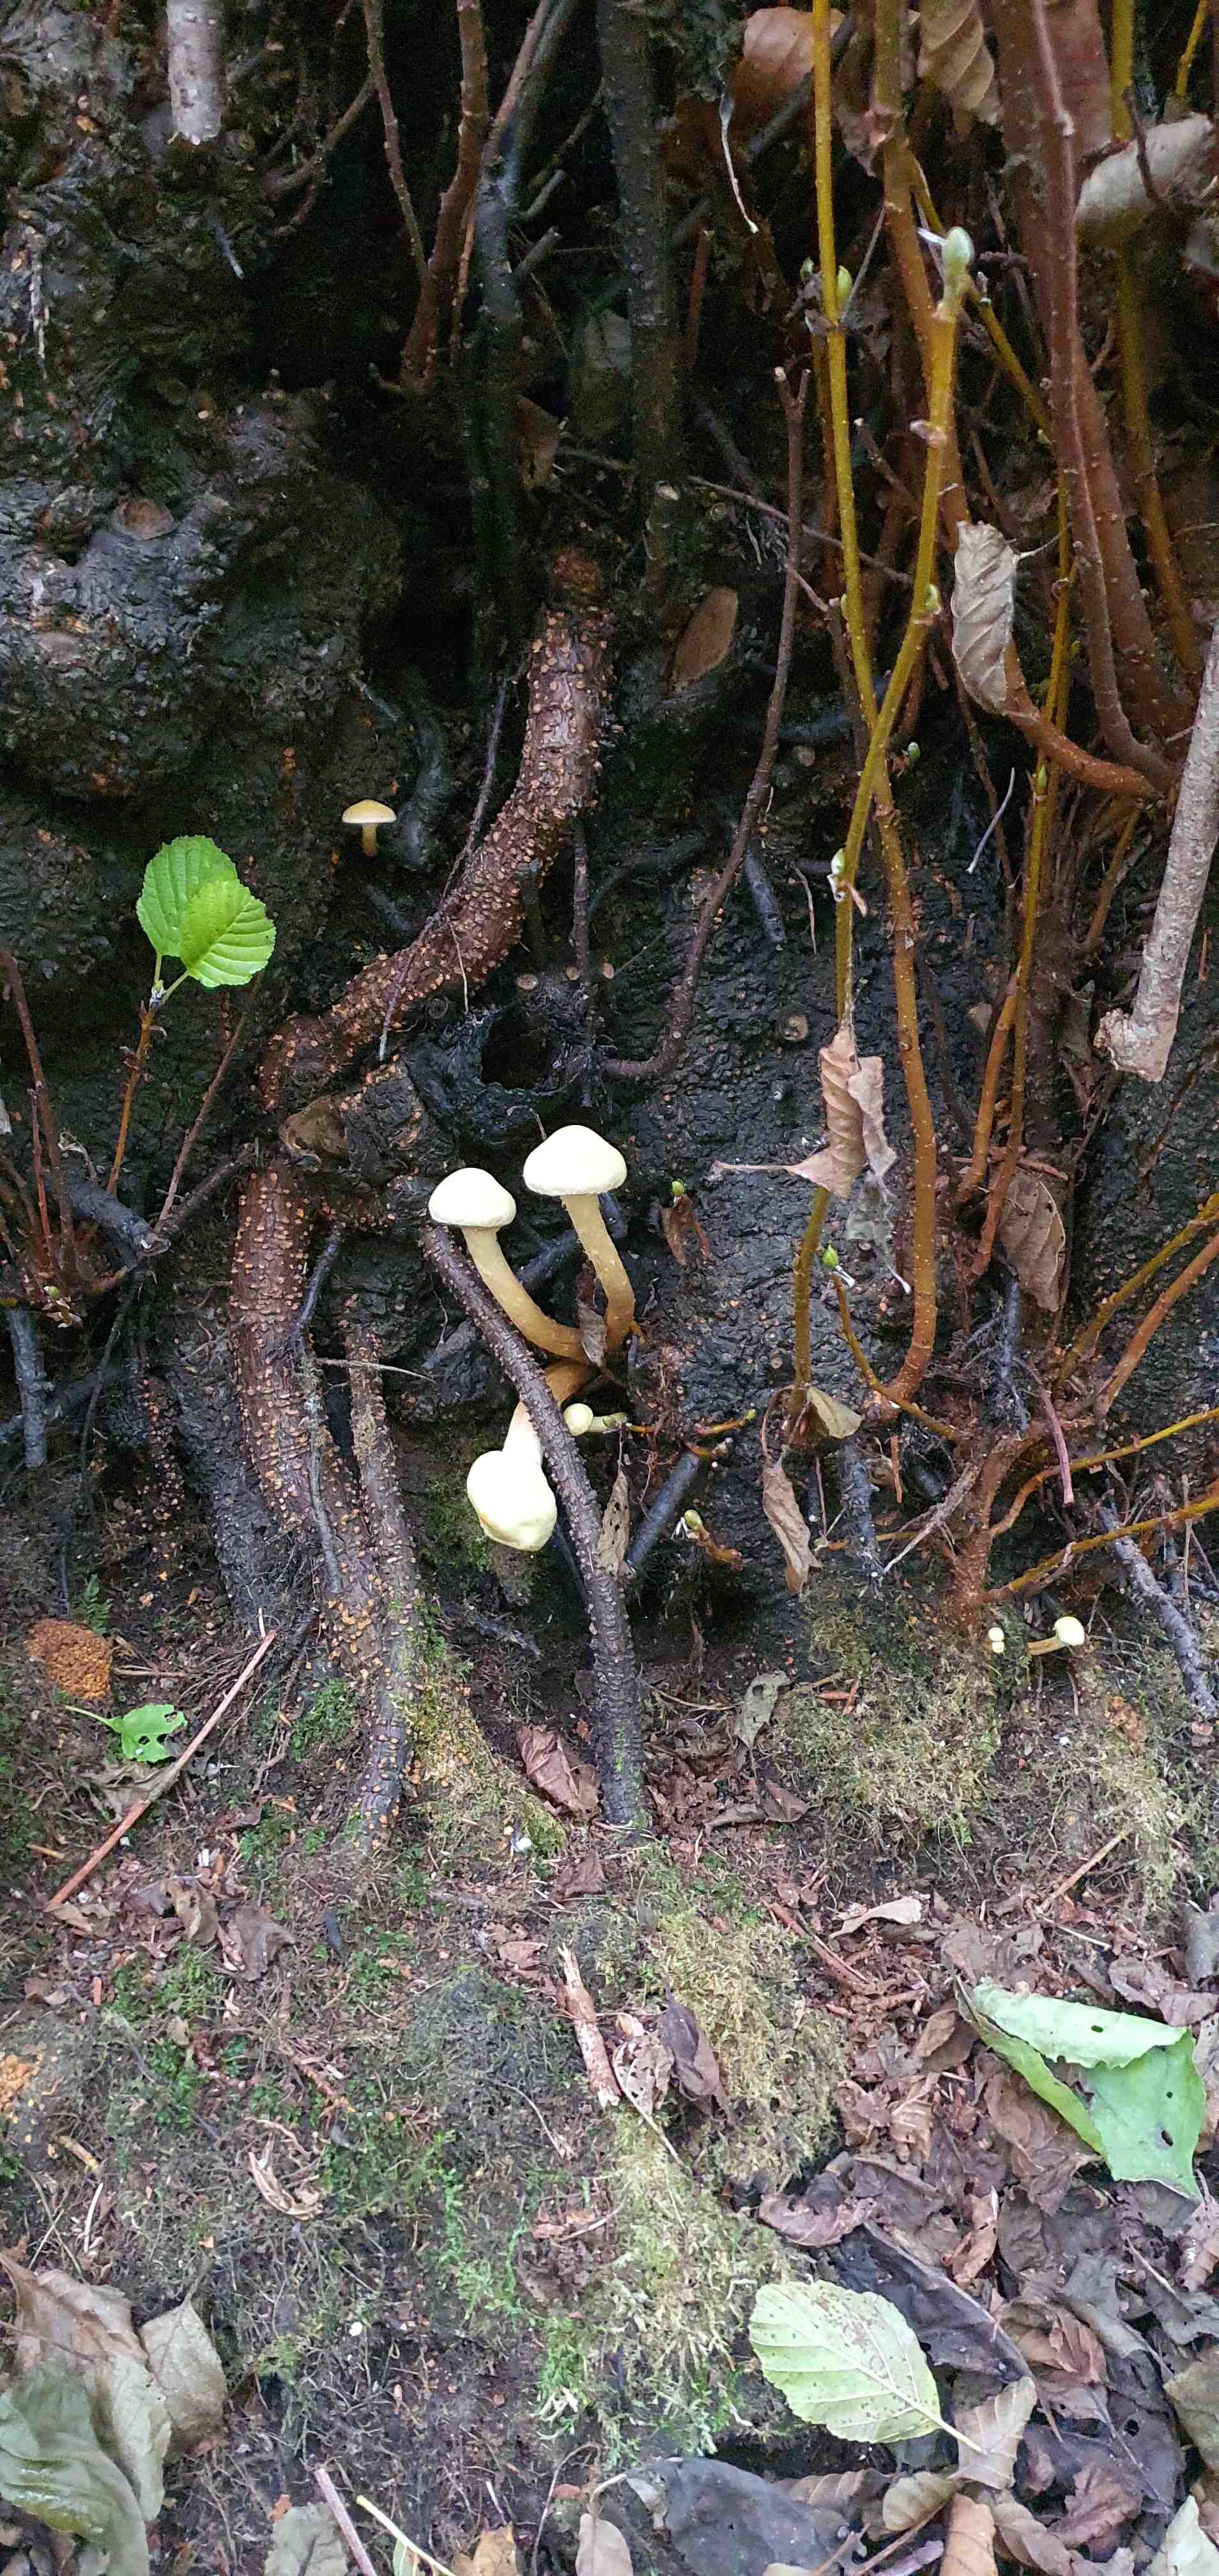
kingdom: Fungi
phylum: Basidiomycota
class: Agaricomycetes
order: Agaricales
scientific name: Agaricales
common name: champignonordenen
